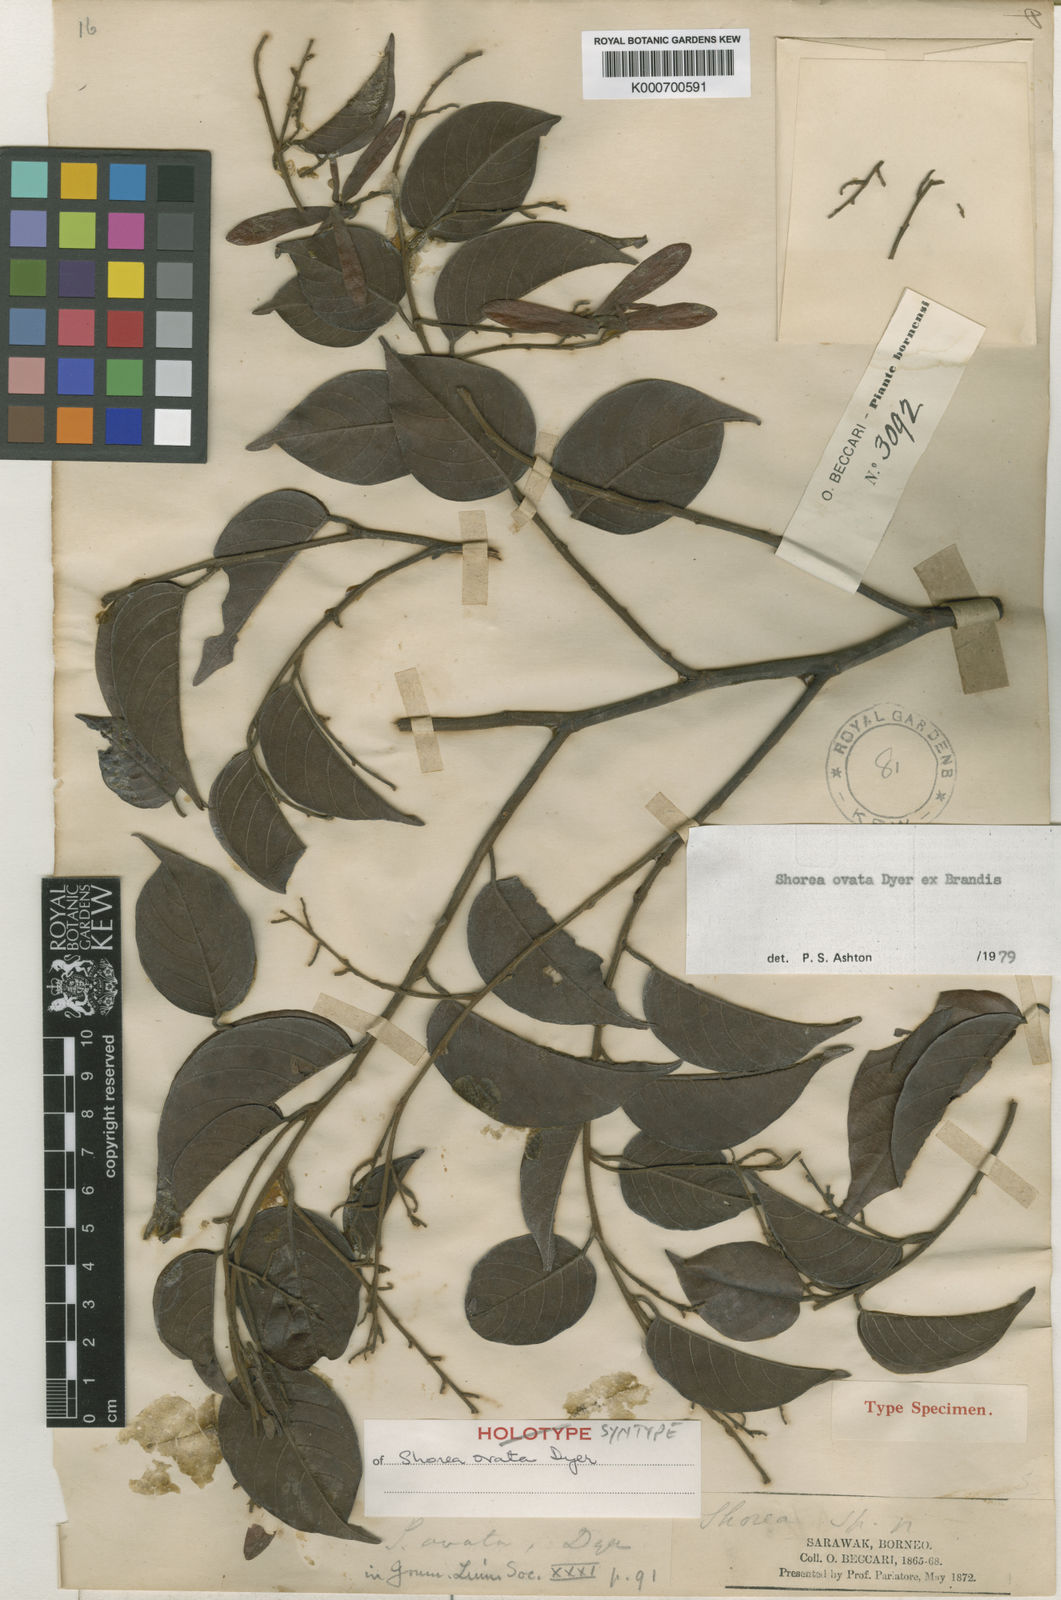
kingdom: Plantae
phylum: Tracheophyta
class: Magnoliopsida
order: Malvales
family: Dipterocarpaceae
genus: Shorea
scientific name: Shorea ovata
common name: Dark red meranti
